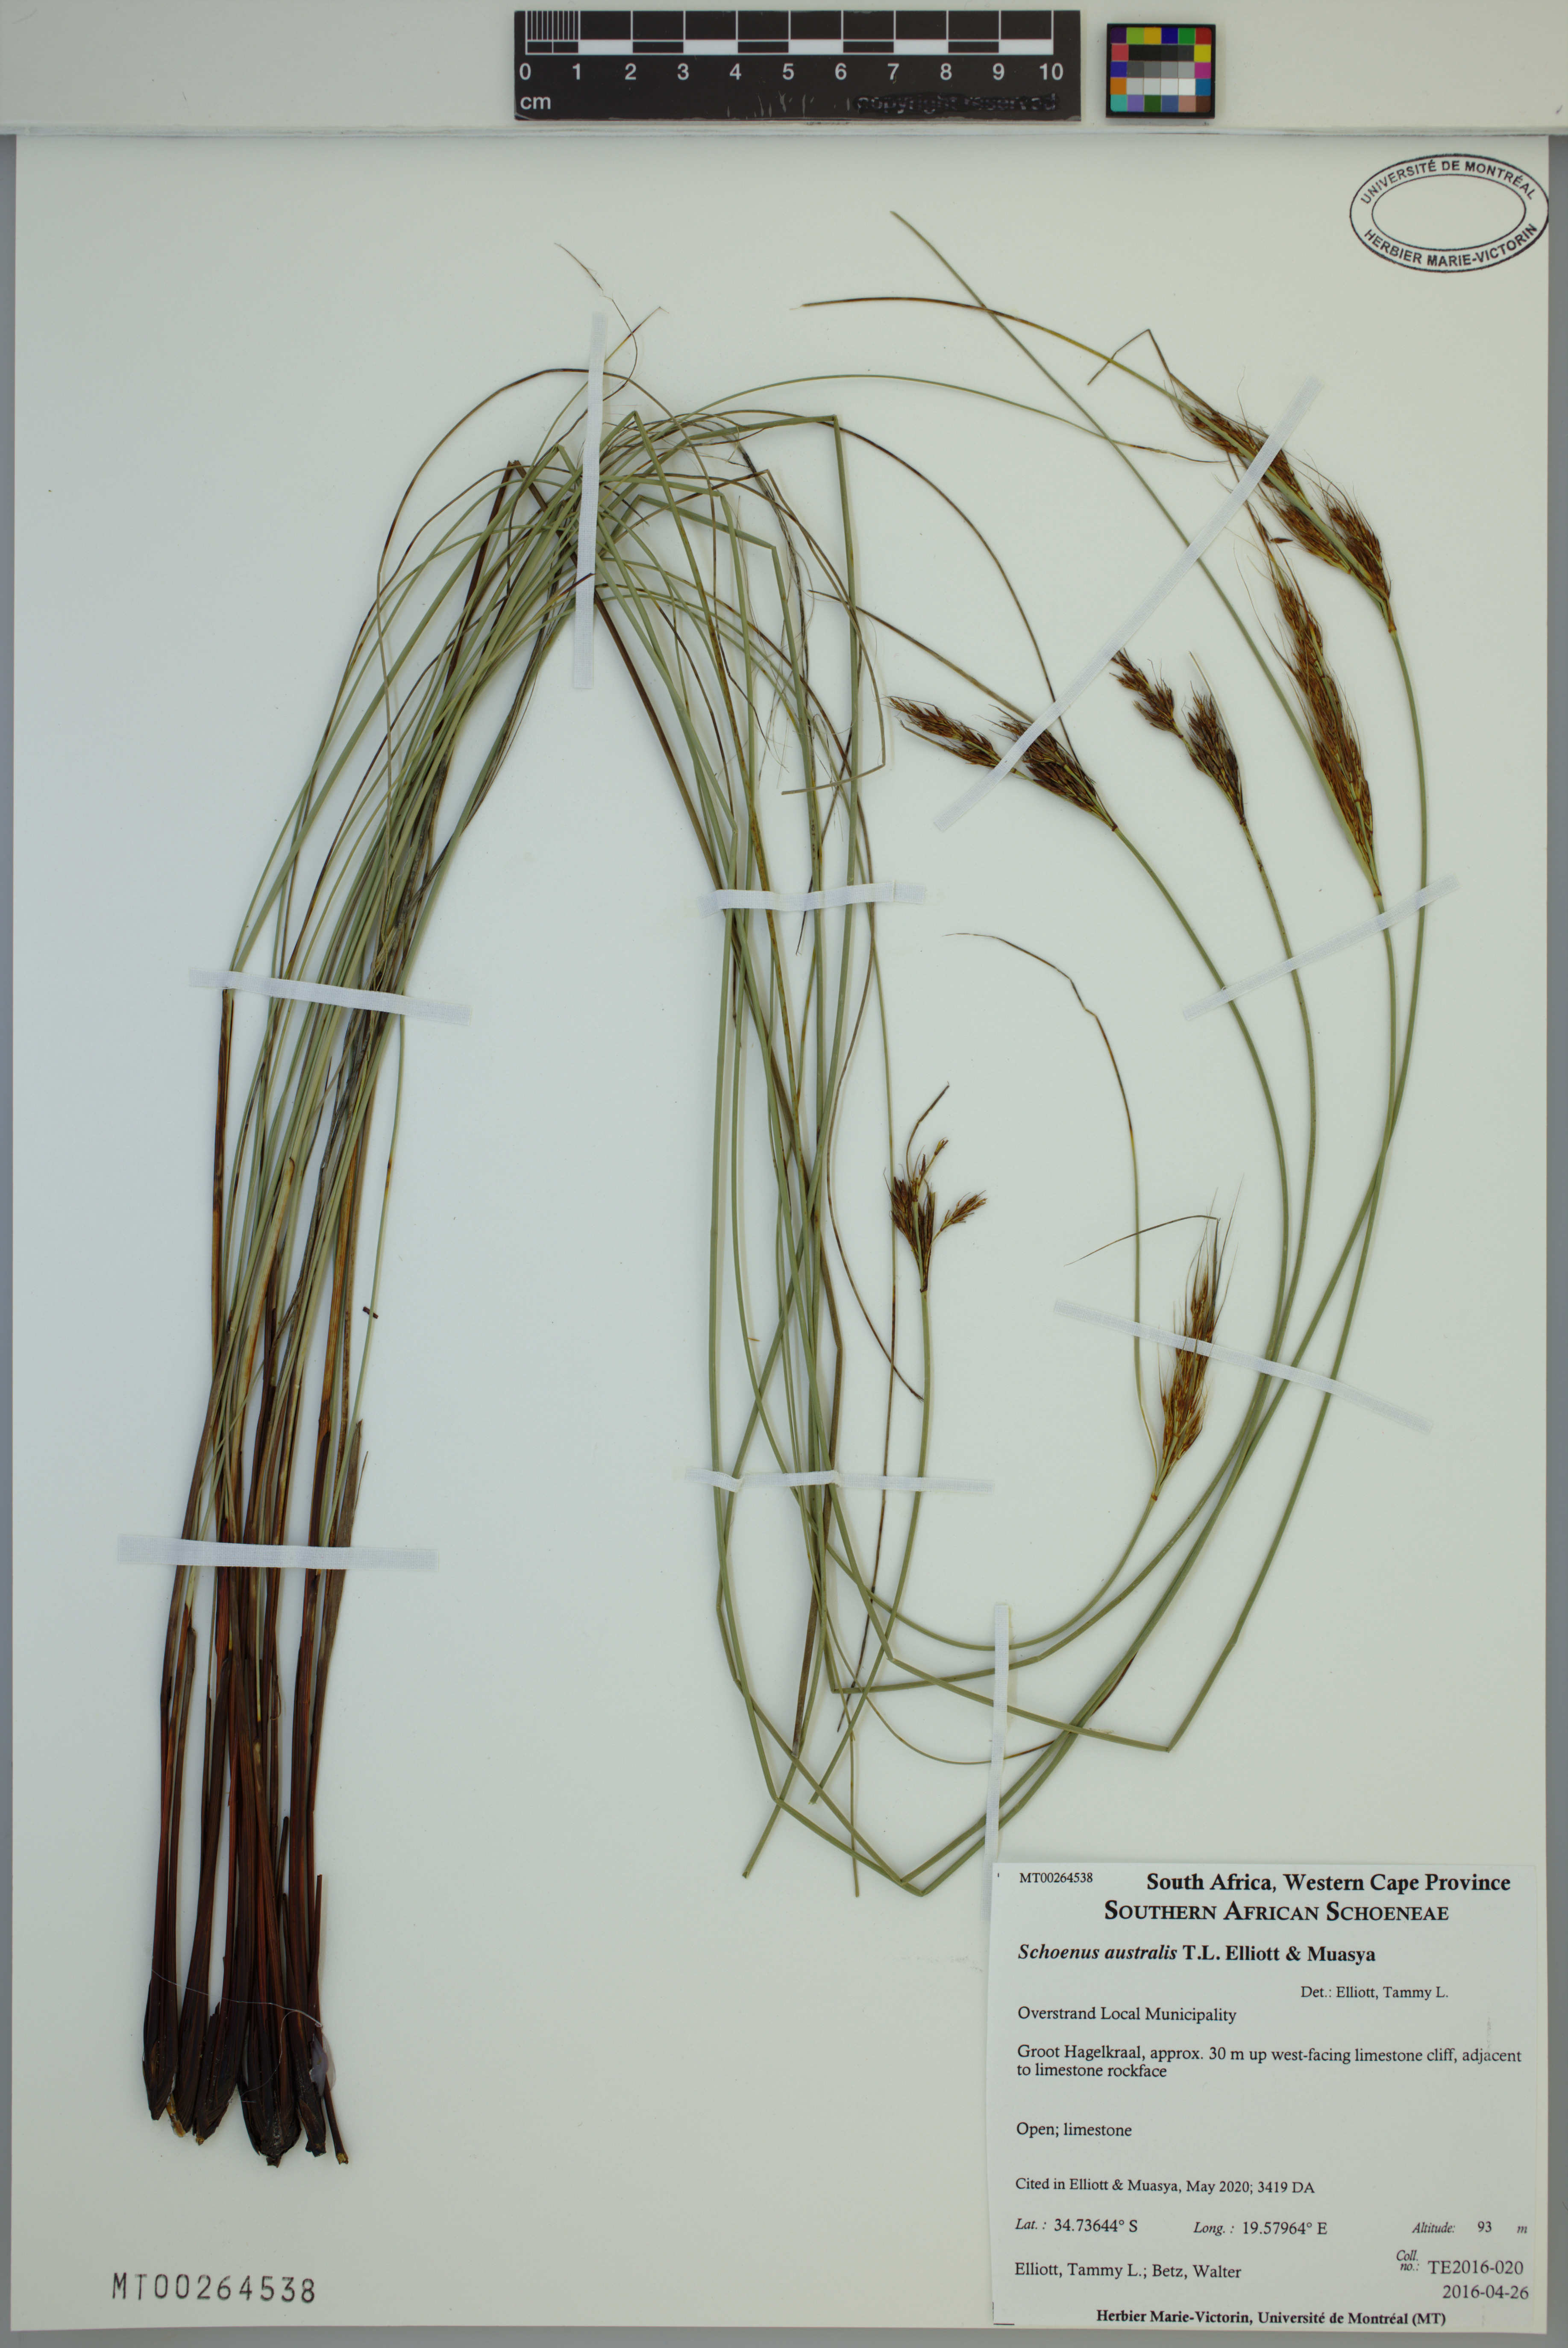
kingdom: Plantae
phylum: Tracheophyta
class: Liliopsida
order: Poales
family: Cyperaceae
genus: Schoenus
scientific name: Schoenus australis
